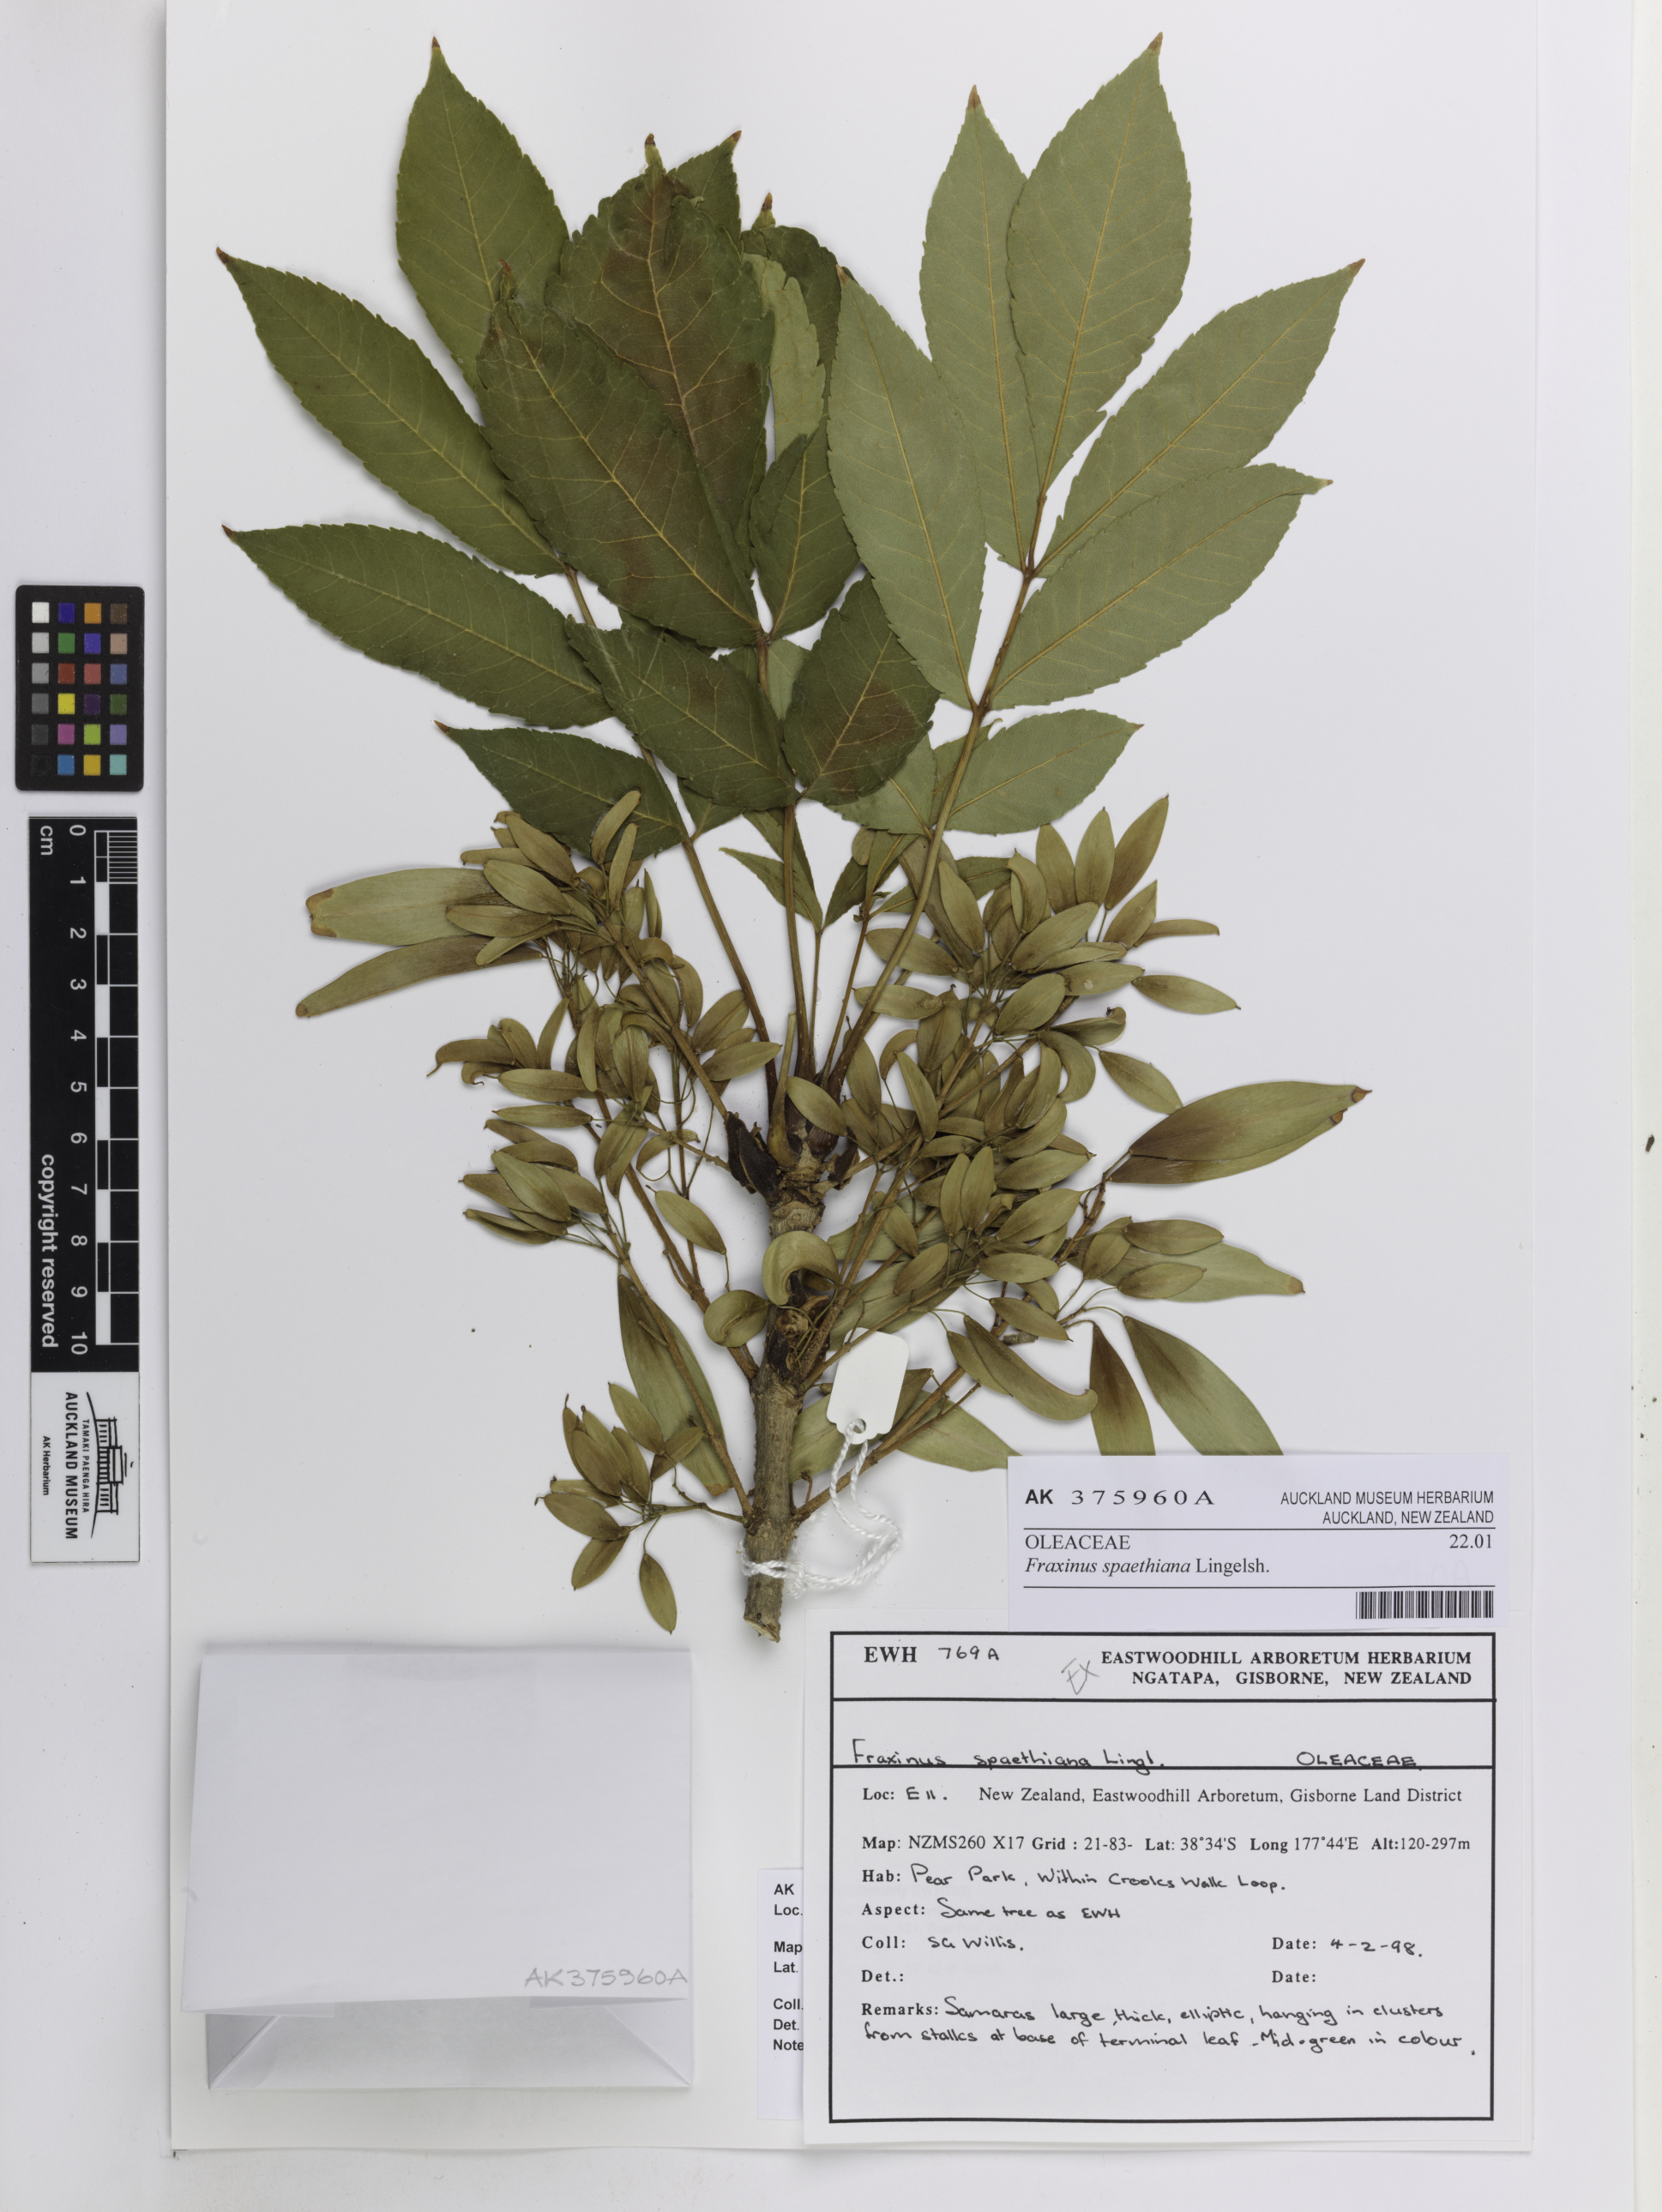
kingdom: Plantae
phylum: Tracheophyta
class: Magnoliopsida
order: Lamiales
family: Oleaceae
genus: Fraxinus
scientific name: Fraxinus platypoda
